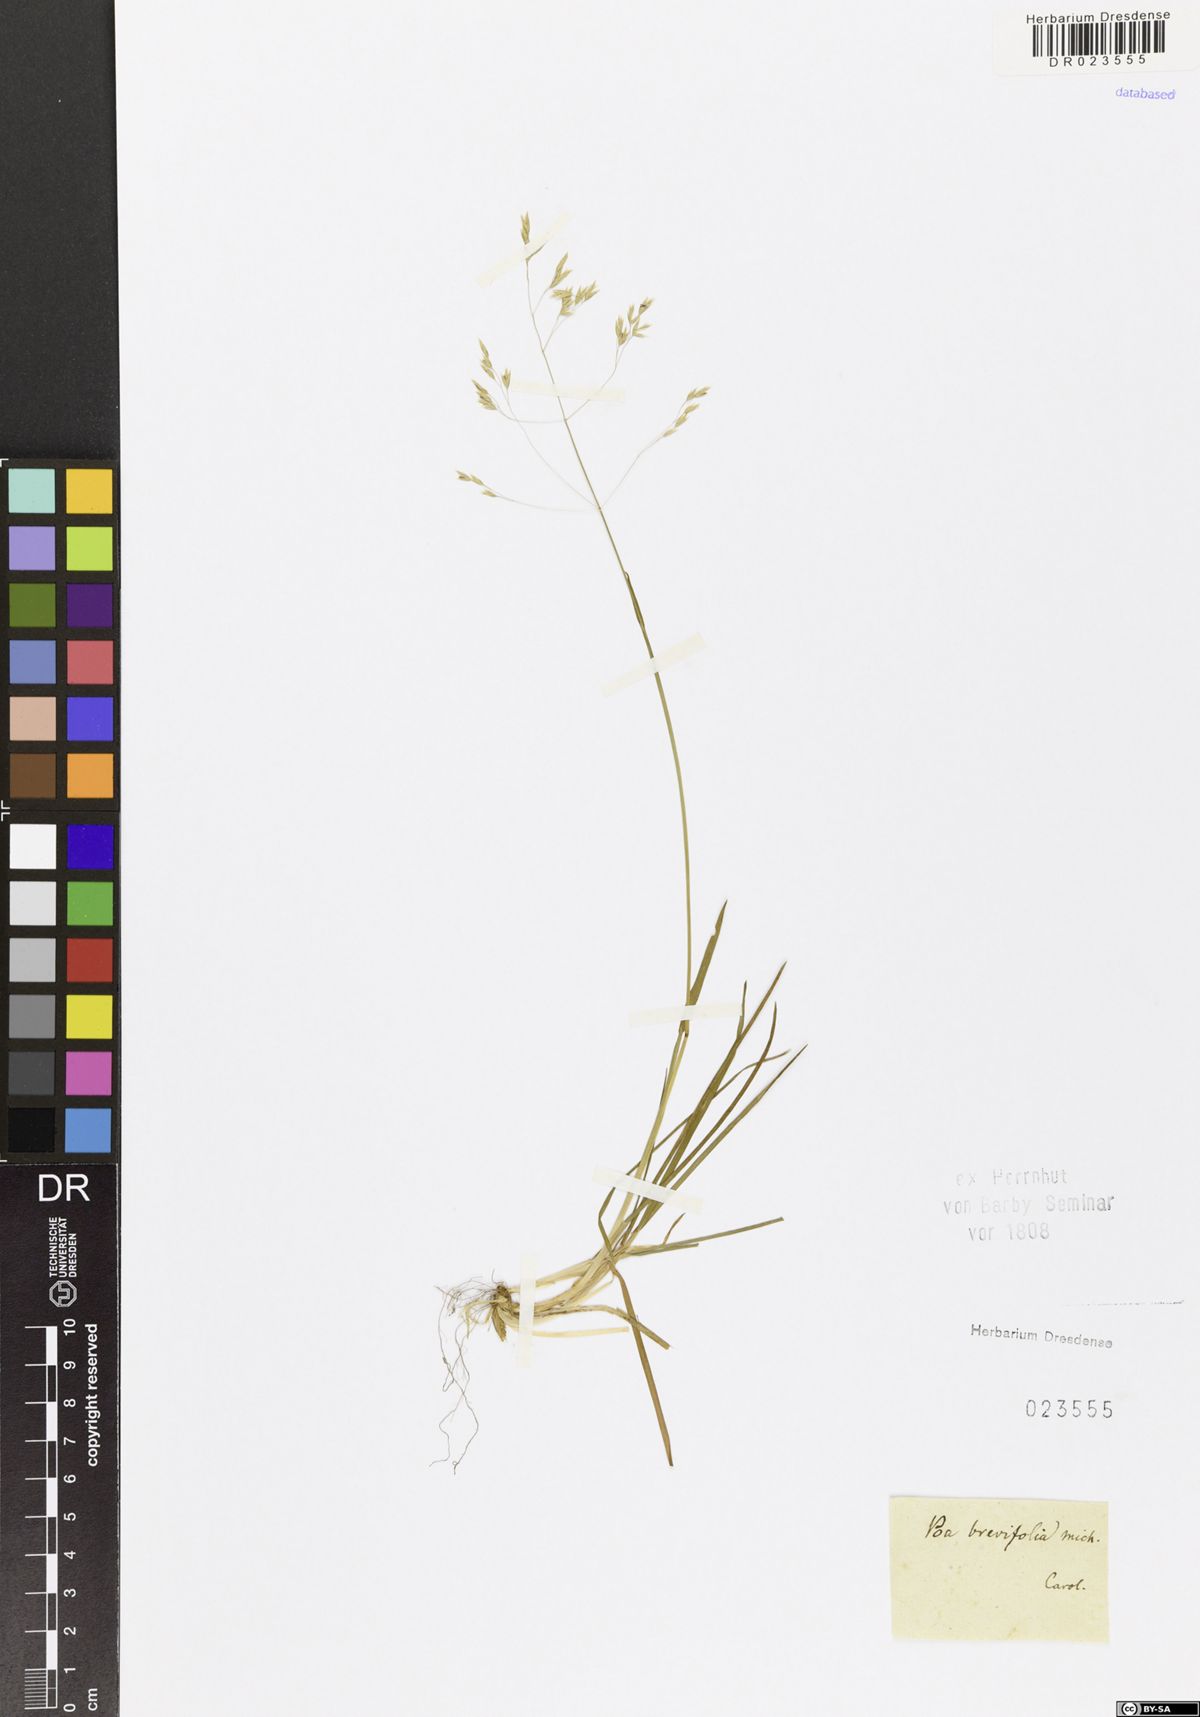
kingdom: Plantae
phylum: Tracheophyta
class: Liliopsida
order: Poales
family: Poaceae
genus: Poa
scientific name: Poa alpina
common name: Alpine bluegrass
